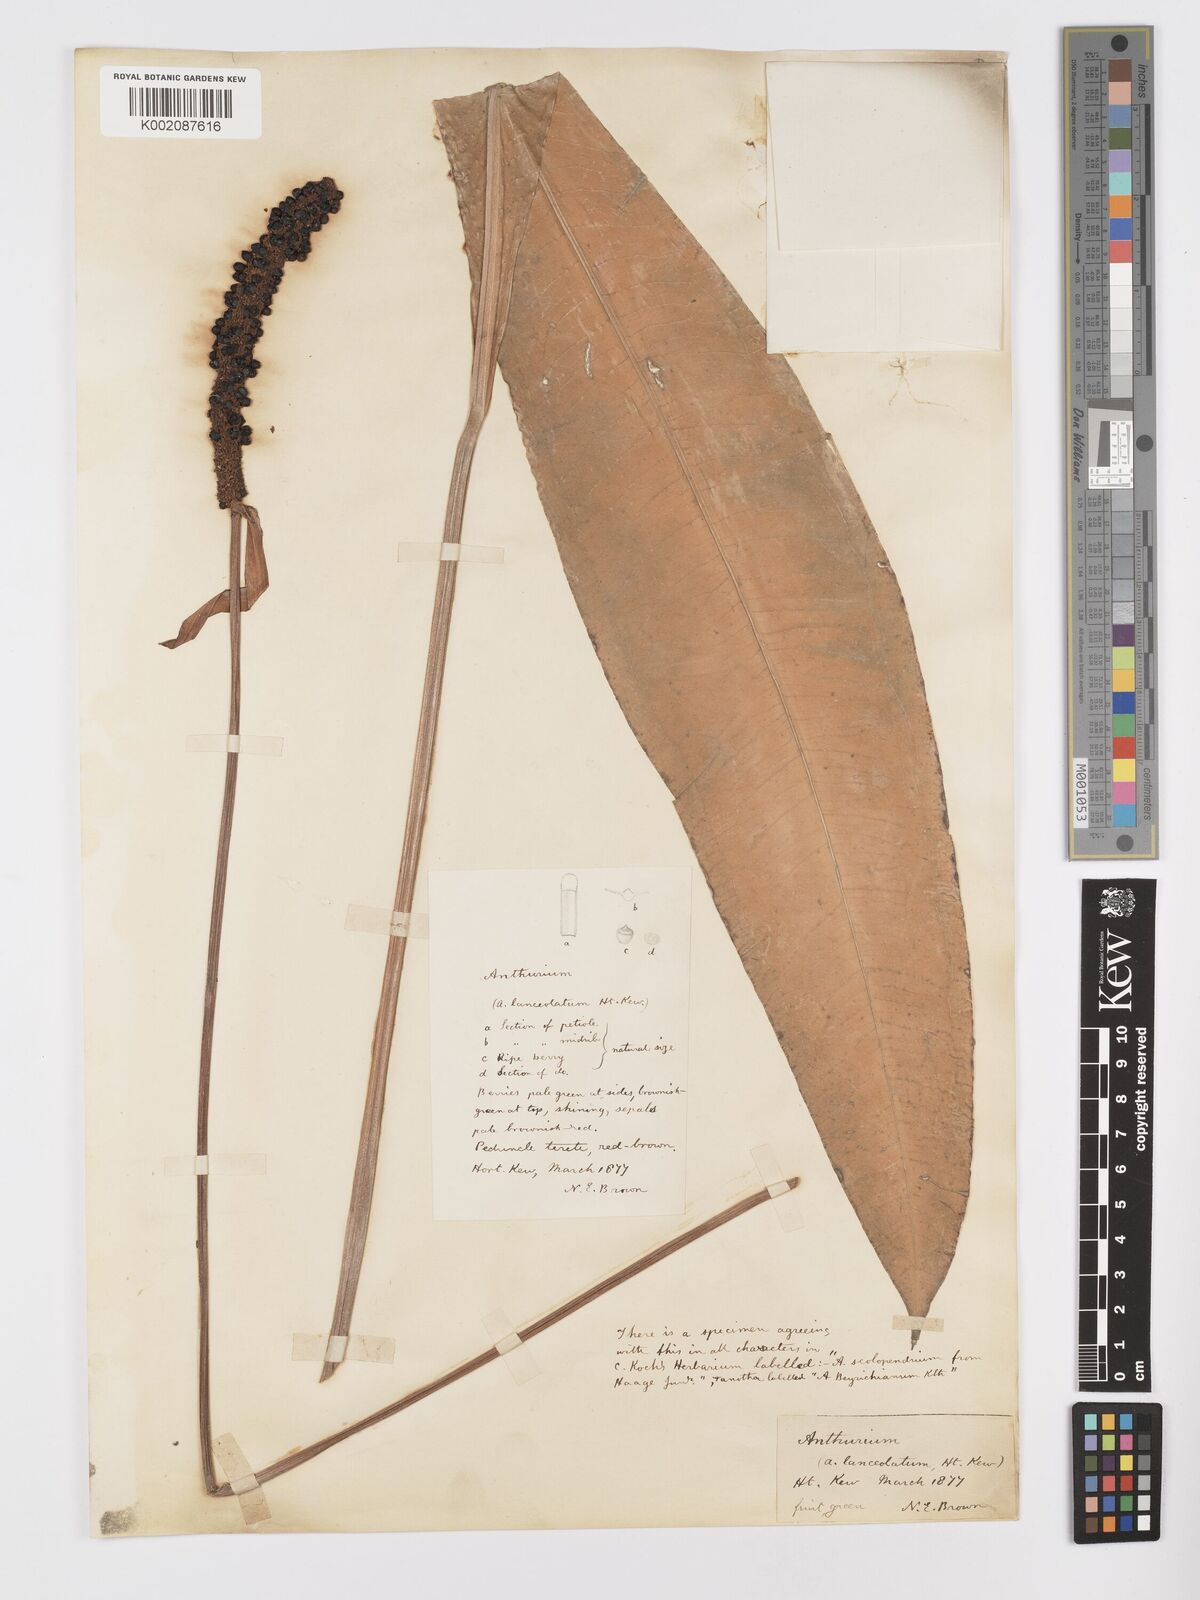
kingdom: Plantae
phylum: Tracheophyta
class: Liliopsida
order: Alismatales
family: Araceae
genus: Anthurium
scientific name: Anthurium intermedium
